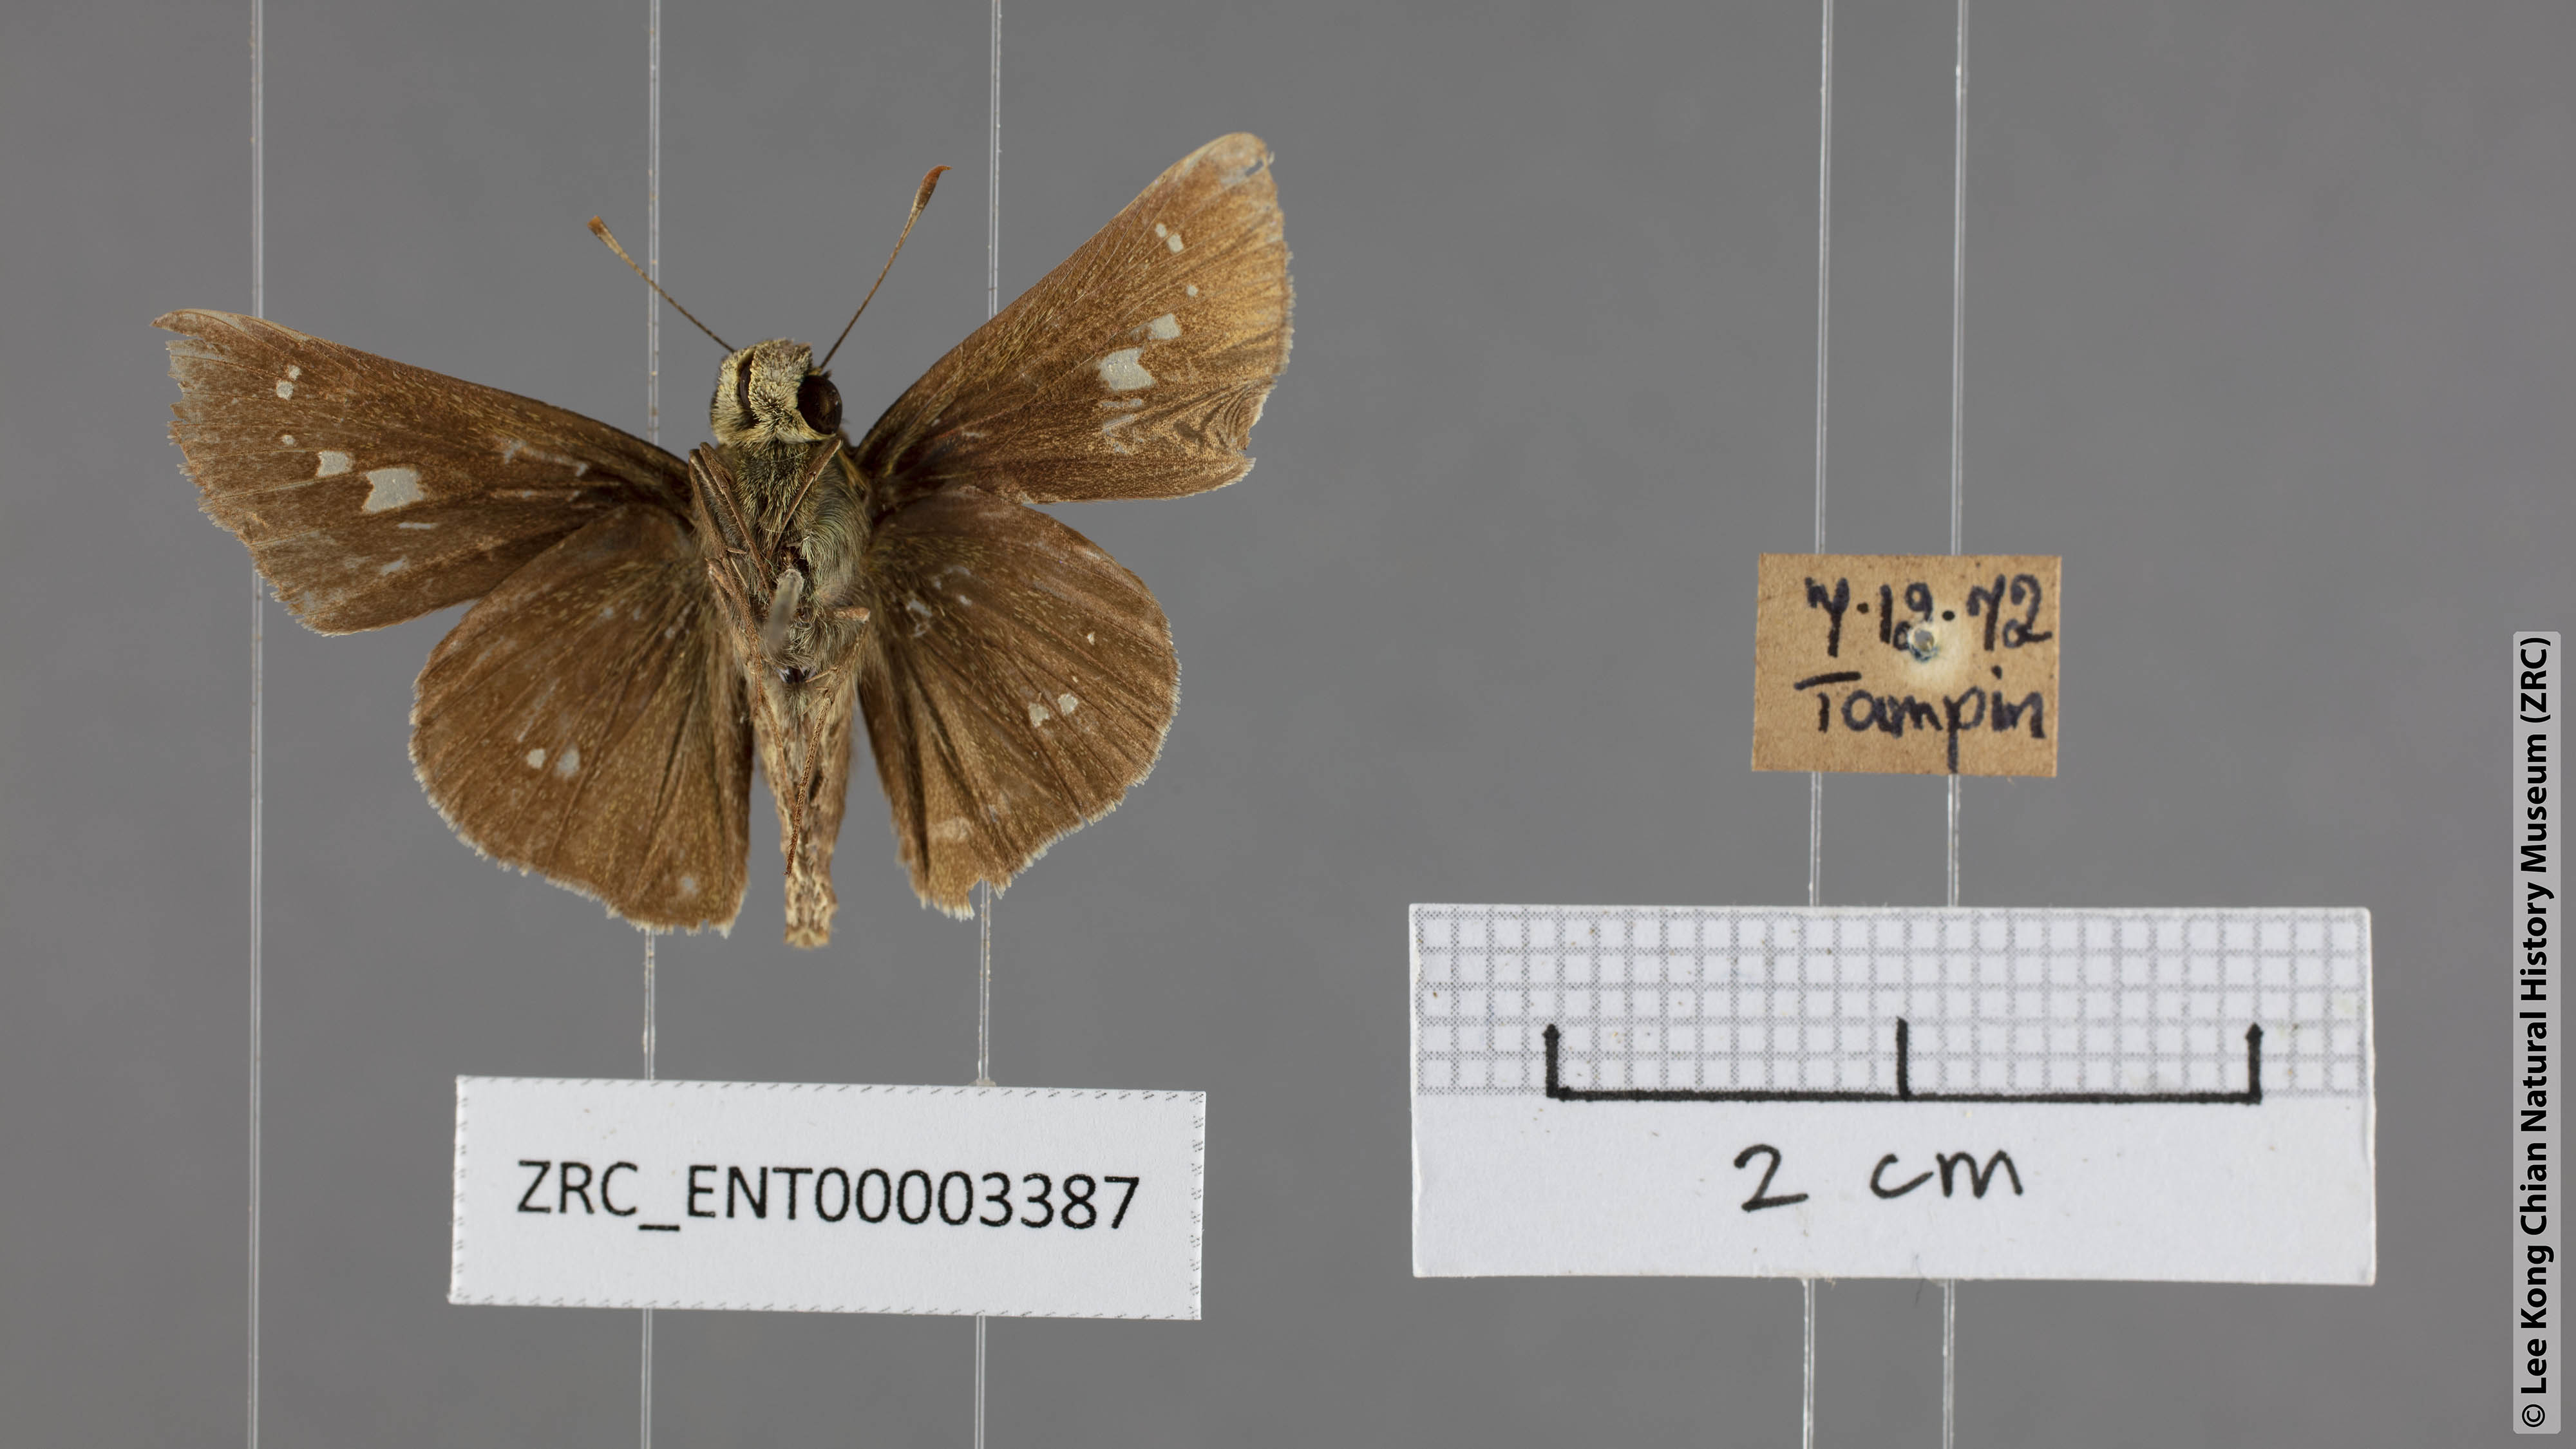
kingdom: Animalia
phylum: Arthropoda
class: Insecta
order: Lepidoptera
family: Hesperiidae
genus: Parnara
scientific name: Parnara apostata
